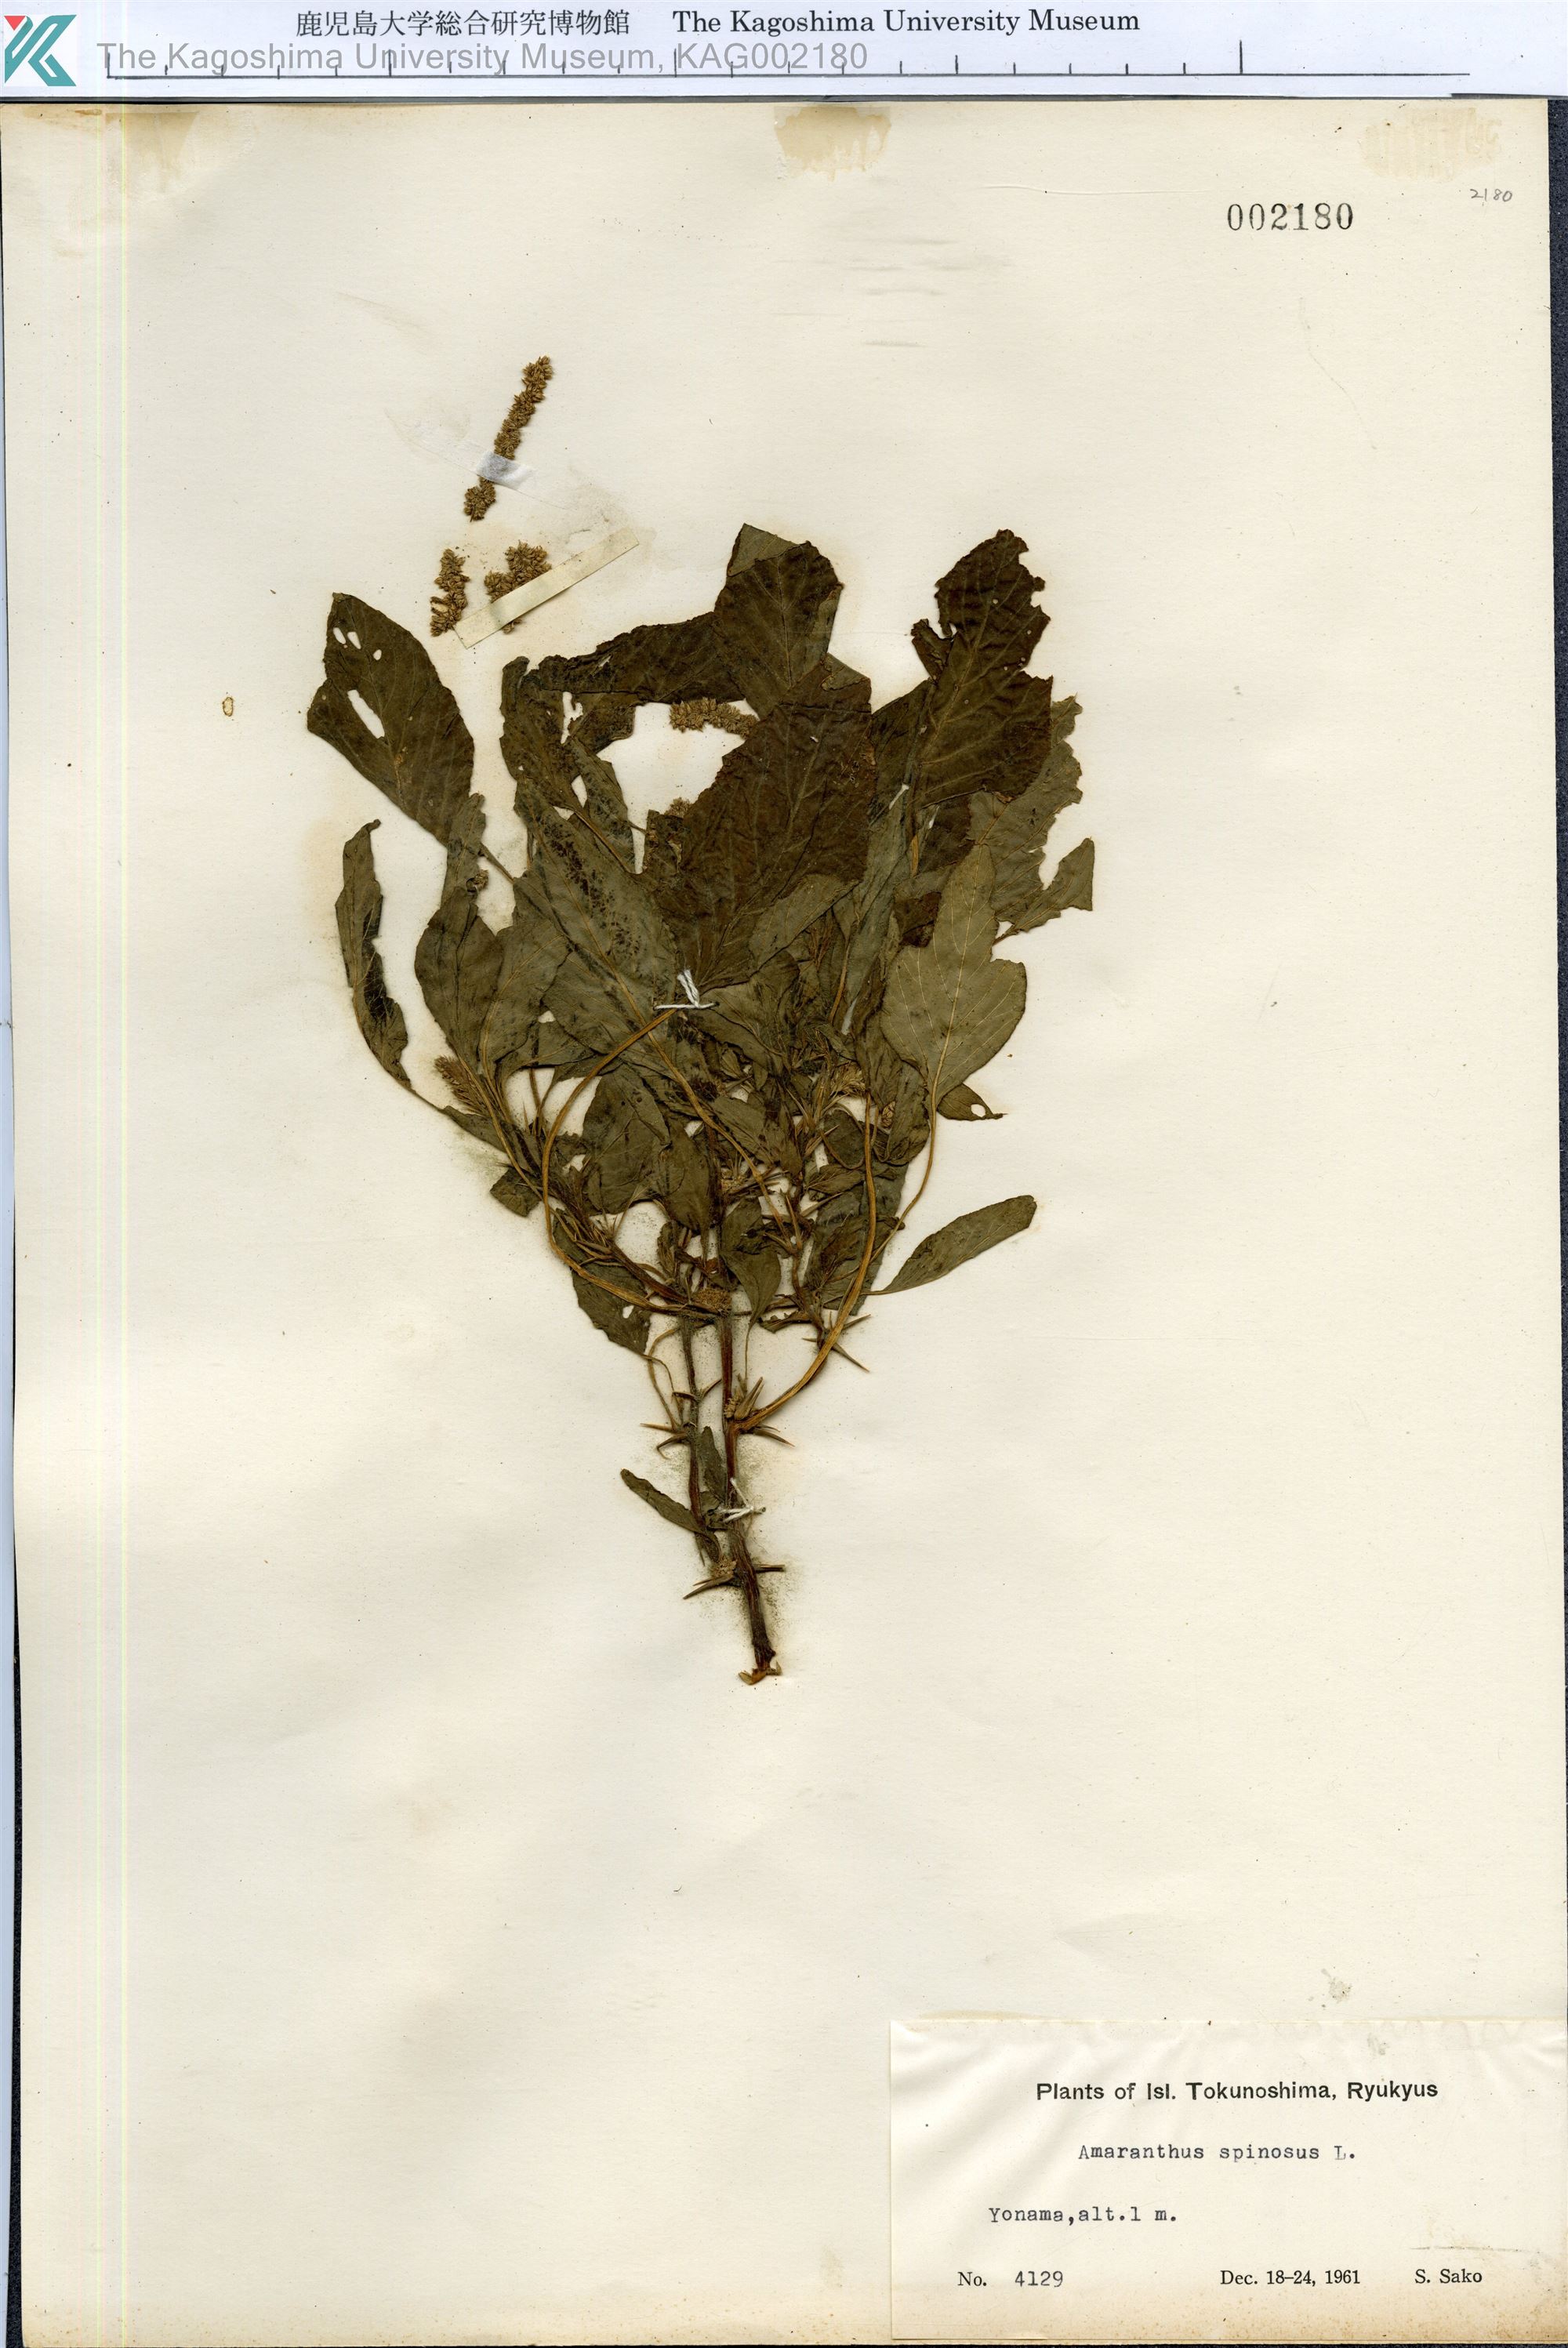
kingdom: Plantae
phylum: Tracheophyta
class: Magnoliopsida
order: Caryophyllales
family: Amaranthaceae
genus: Amaranthus
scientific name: Amaranthus spinosus
